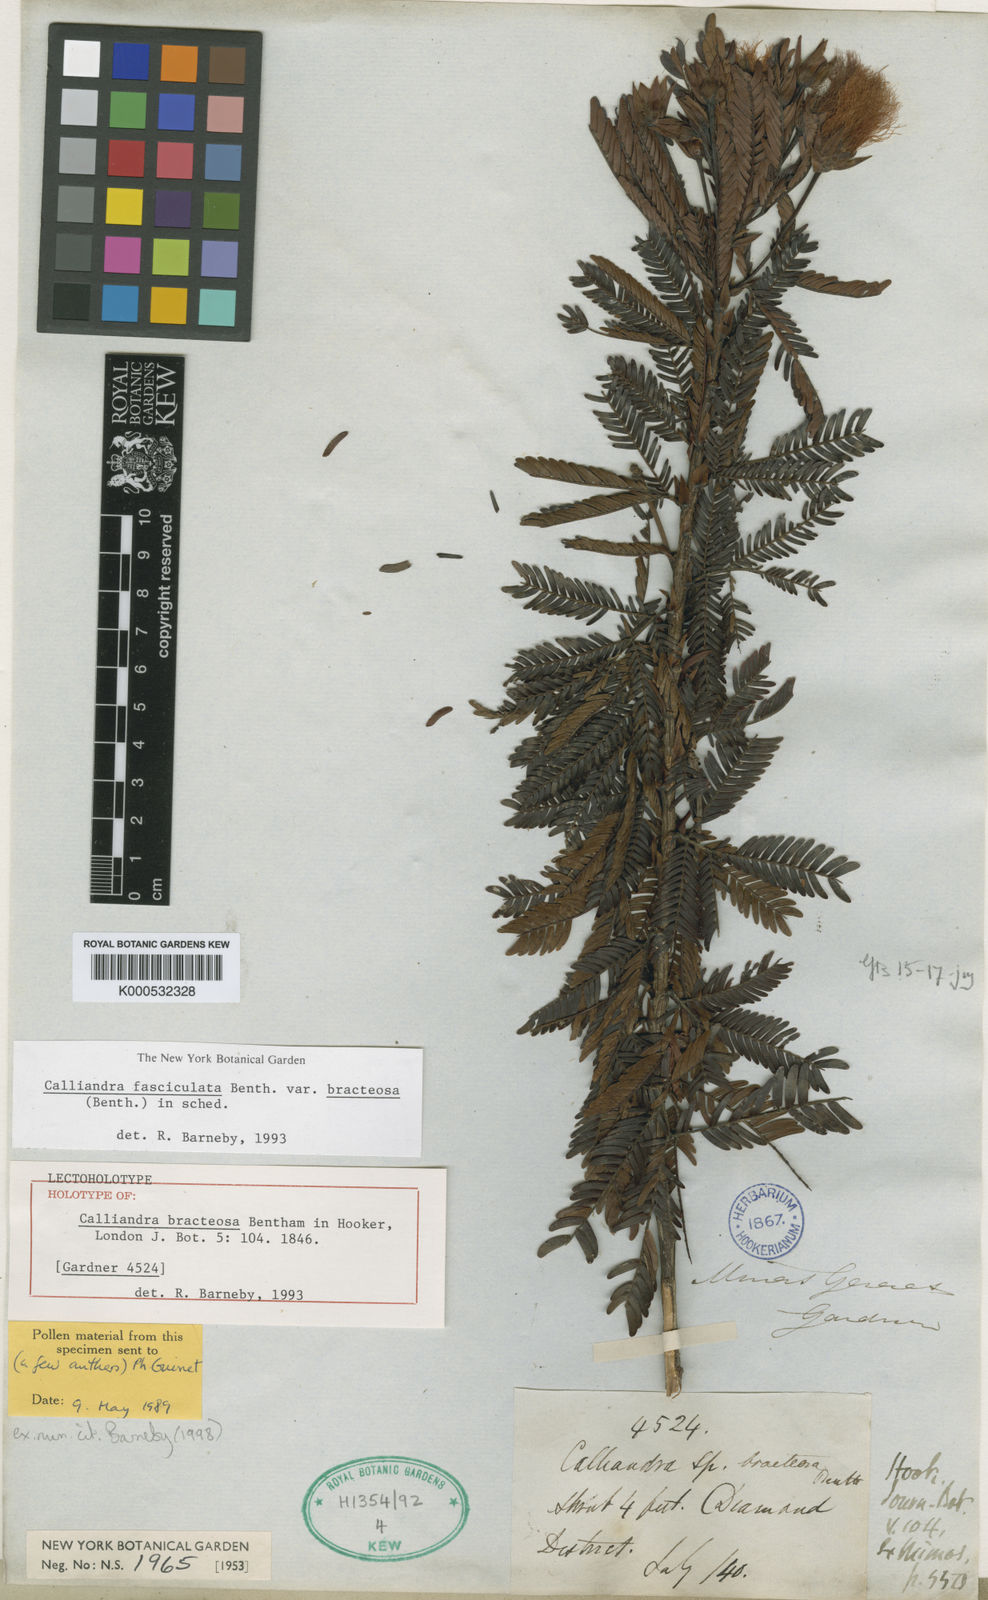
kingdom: Plantae
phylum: Tracheophyta
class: Magnoliopsida
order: Fabales
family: Fabaceae
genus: Calliandra
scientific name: Calliandra fasciculata
